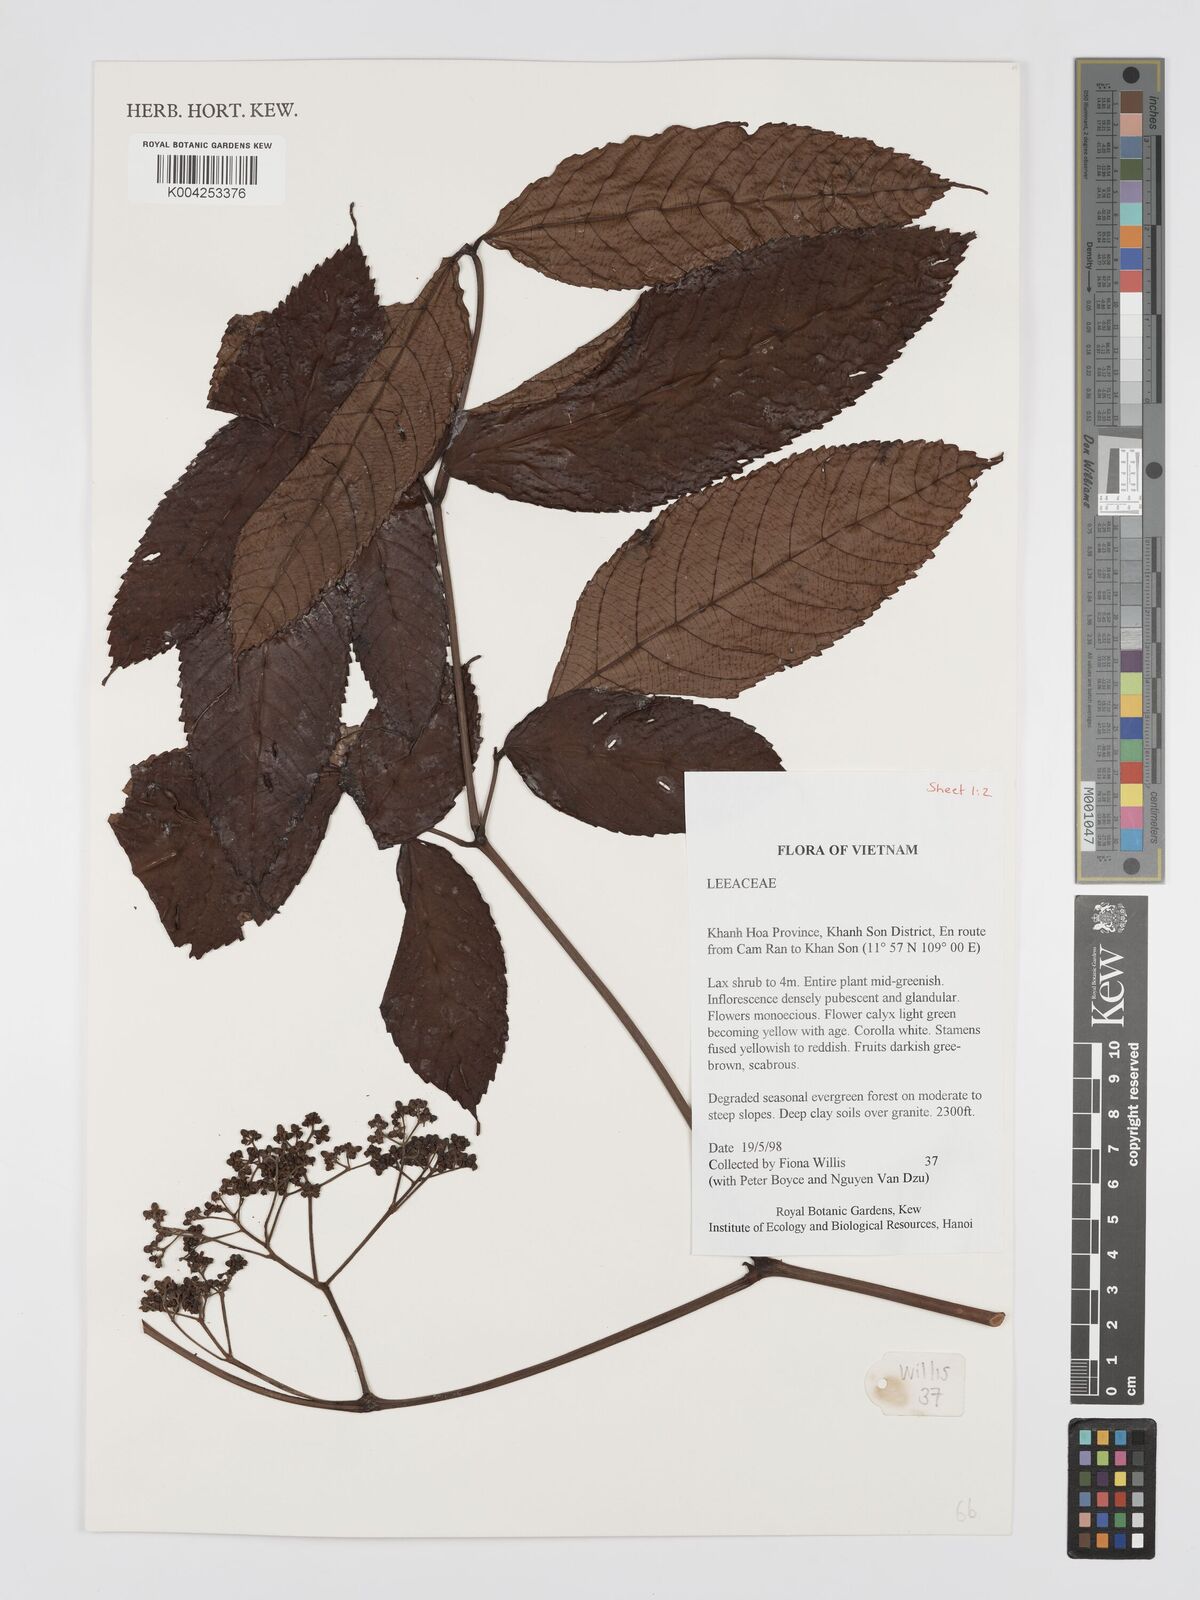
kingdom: Plantae
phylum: Tracheophyta
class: Magnoliopsida
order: Vitales
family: Vitaceae
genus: Leea
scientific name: Leea
